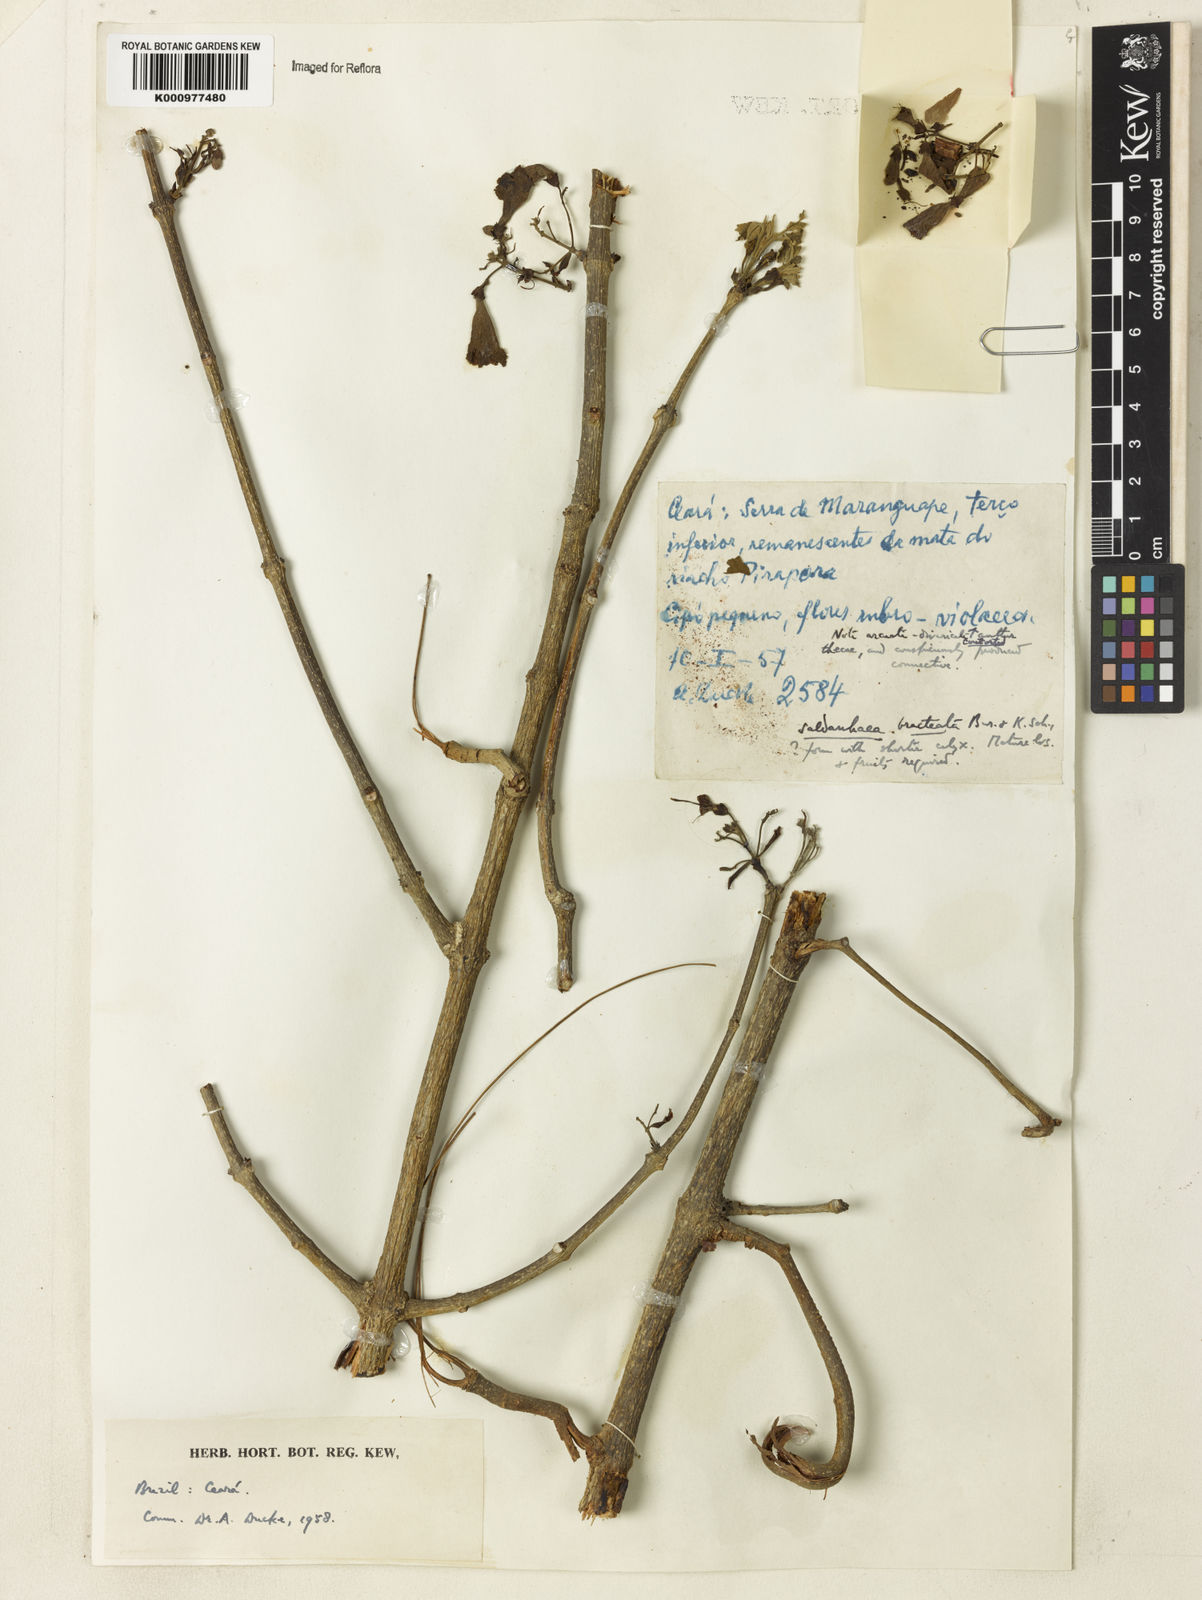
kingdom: Plantae
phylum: Tracheophyta
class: Magnoliopsida
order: Lamiales
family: Bignoniaceae
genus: Cuspidaria
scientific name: Cuspidaria bracteata
